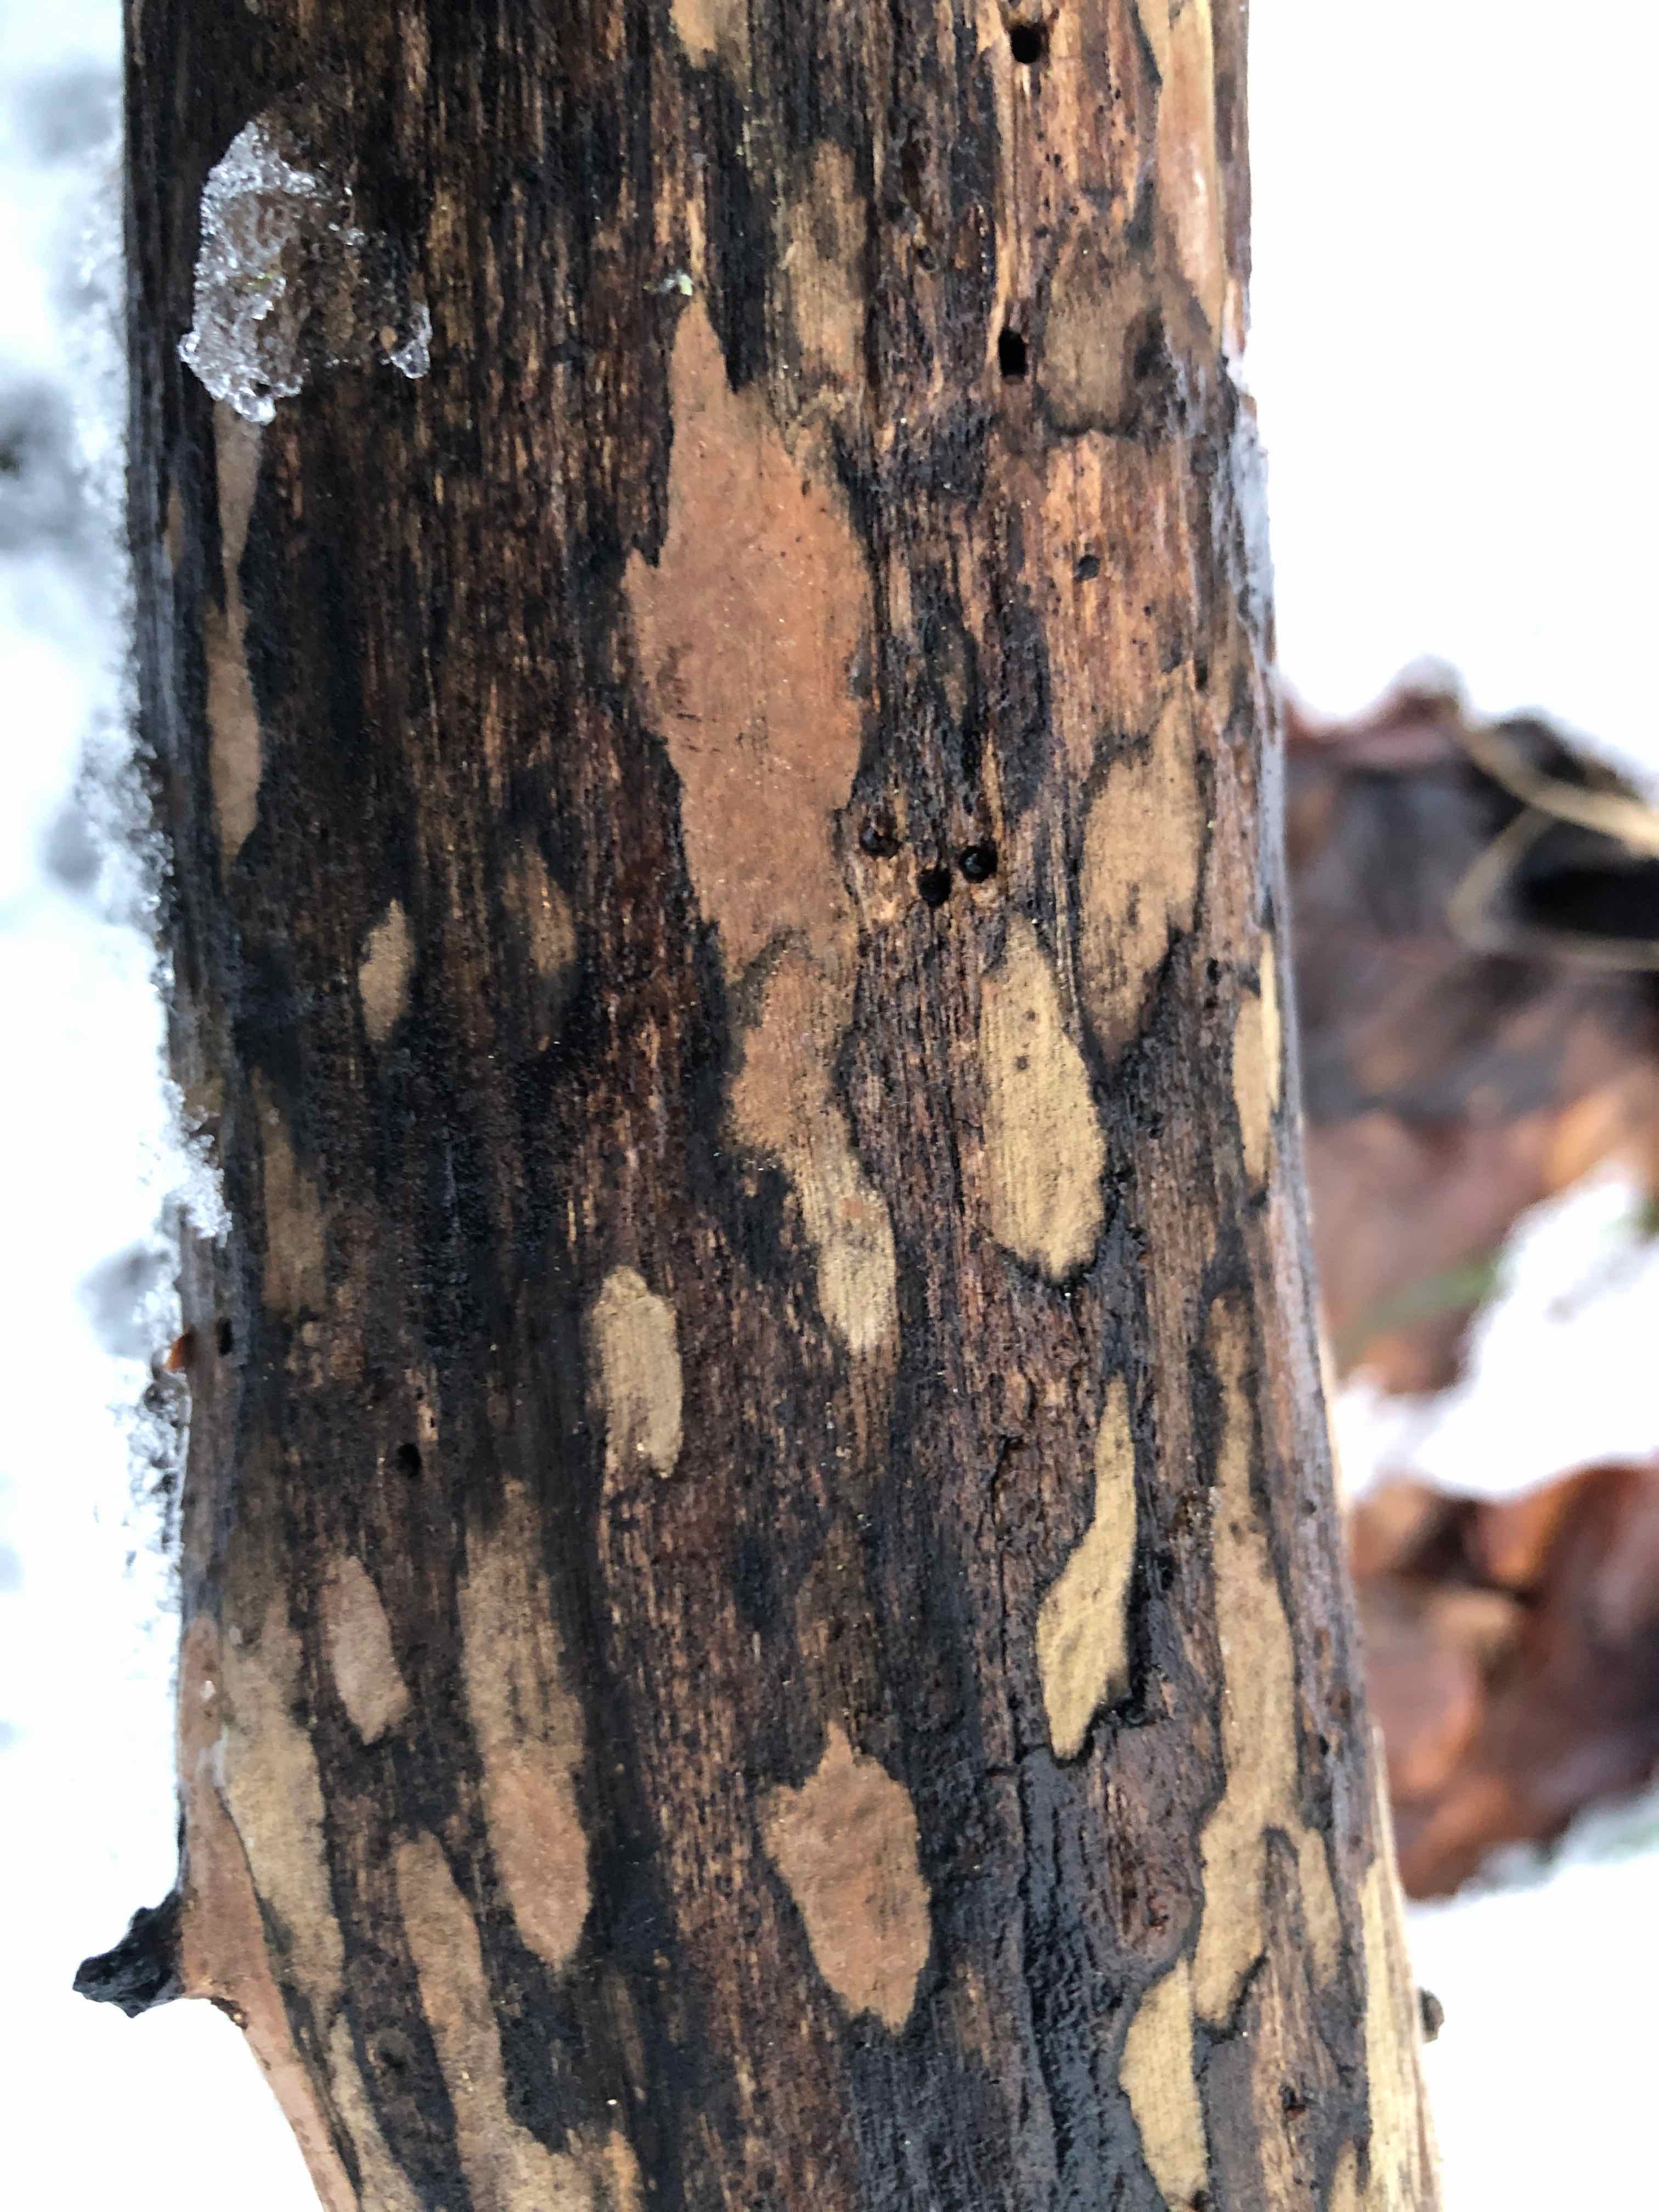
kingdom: Fungi
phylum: Ascomycota
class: Sordariomycetes
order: Xylariales
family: Hypoxylaceae
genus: Hypoxylon
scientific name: Hypoxylon petriniae
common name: nedsænket kulbær
